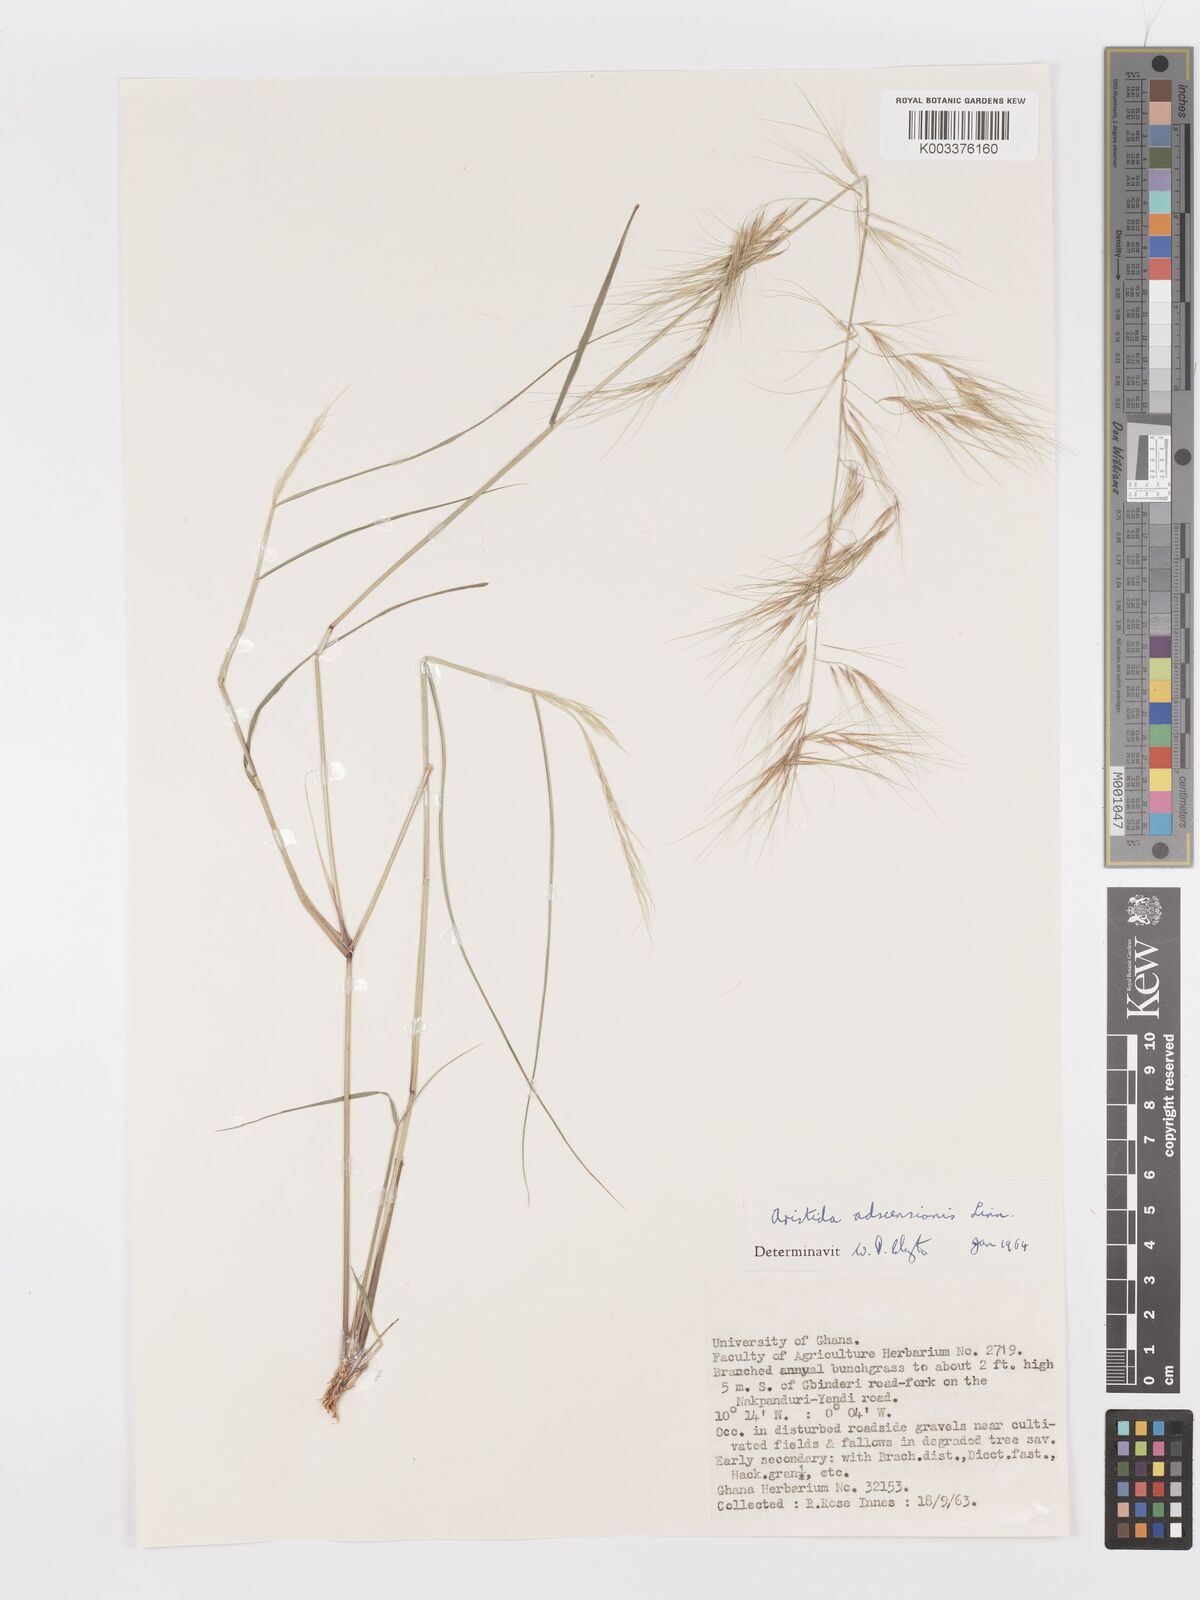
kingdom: Plantae
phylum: Tracheophyta
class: Liliopsida
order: Poales
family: Poaceae
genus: Aristida
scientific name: Aristida adscensionis
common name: Sixweeks threeawn
